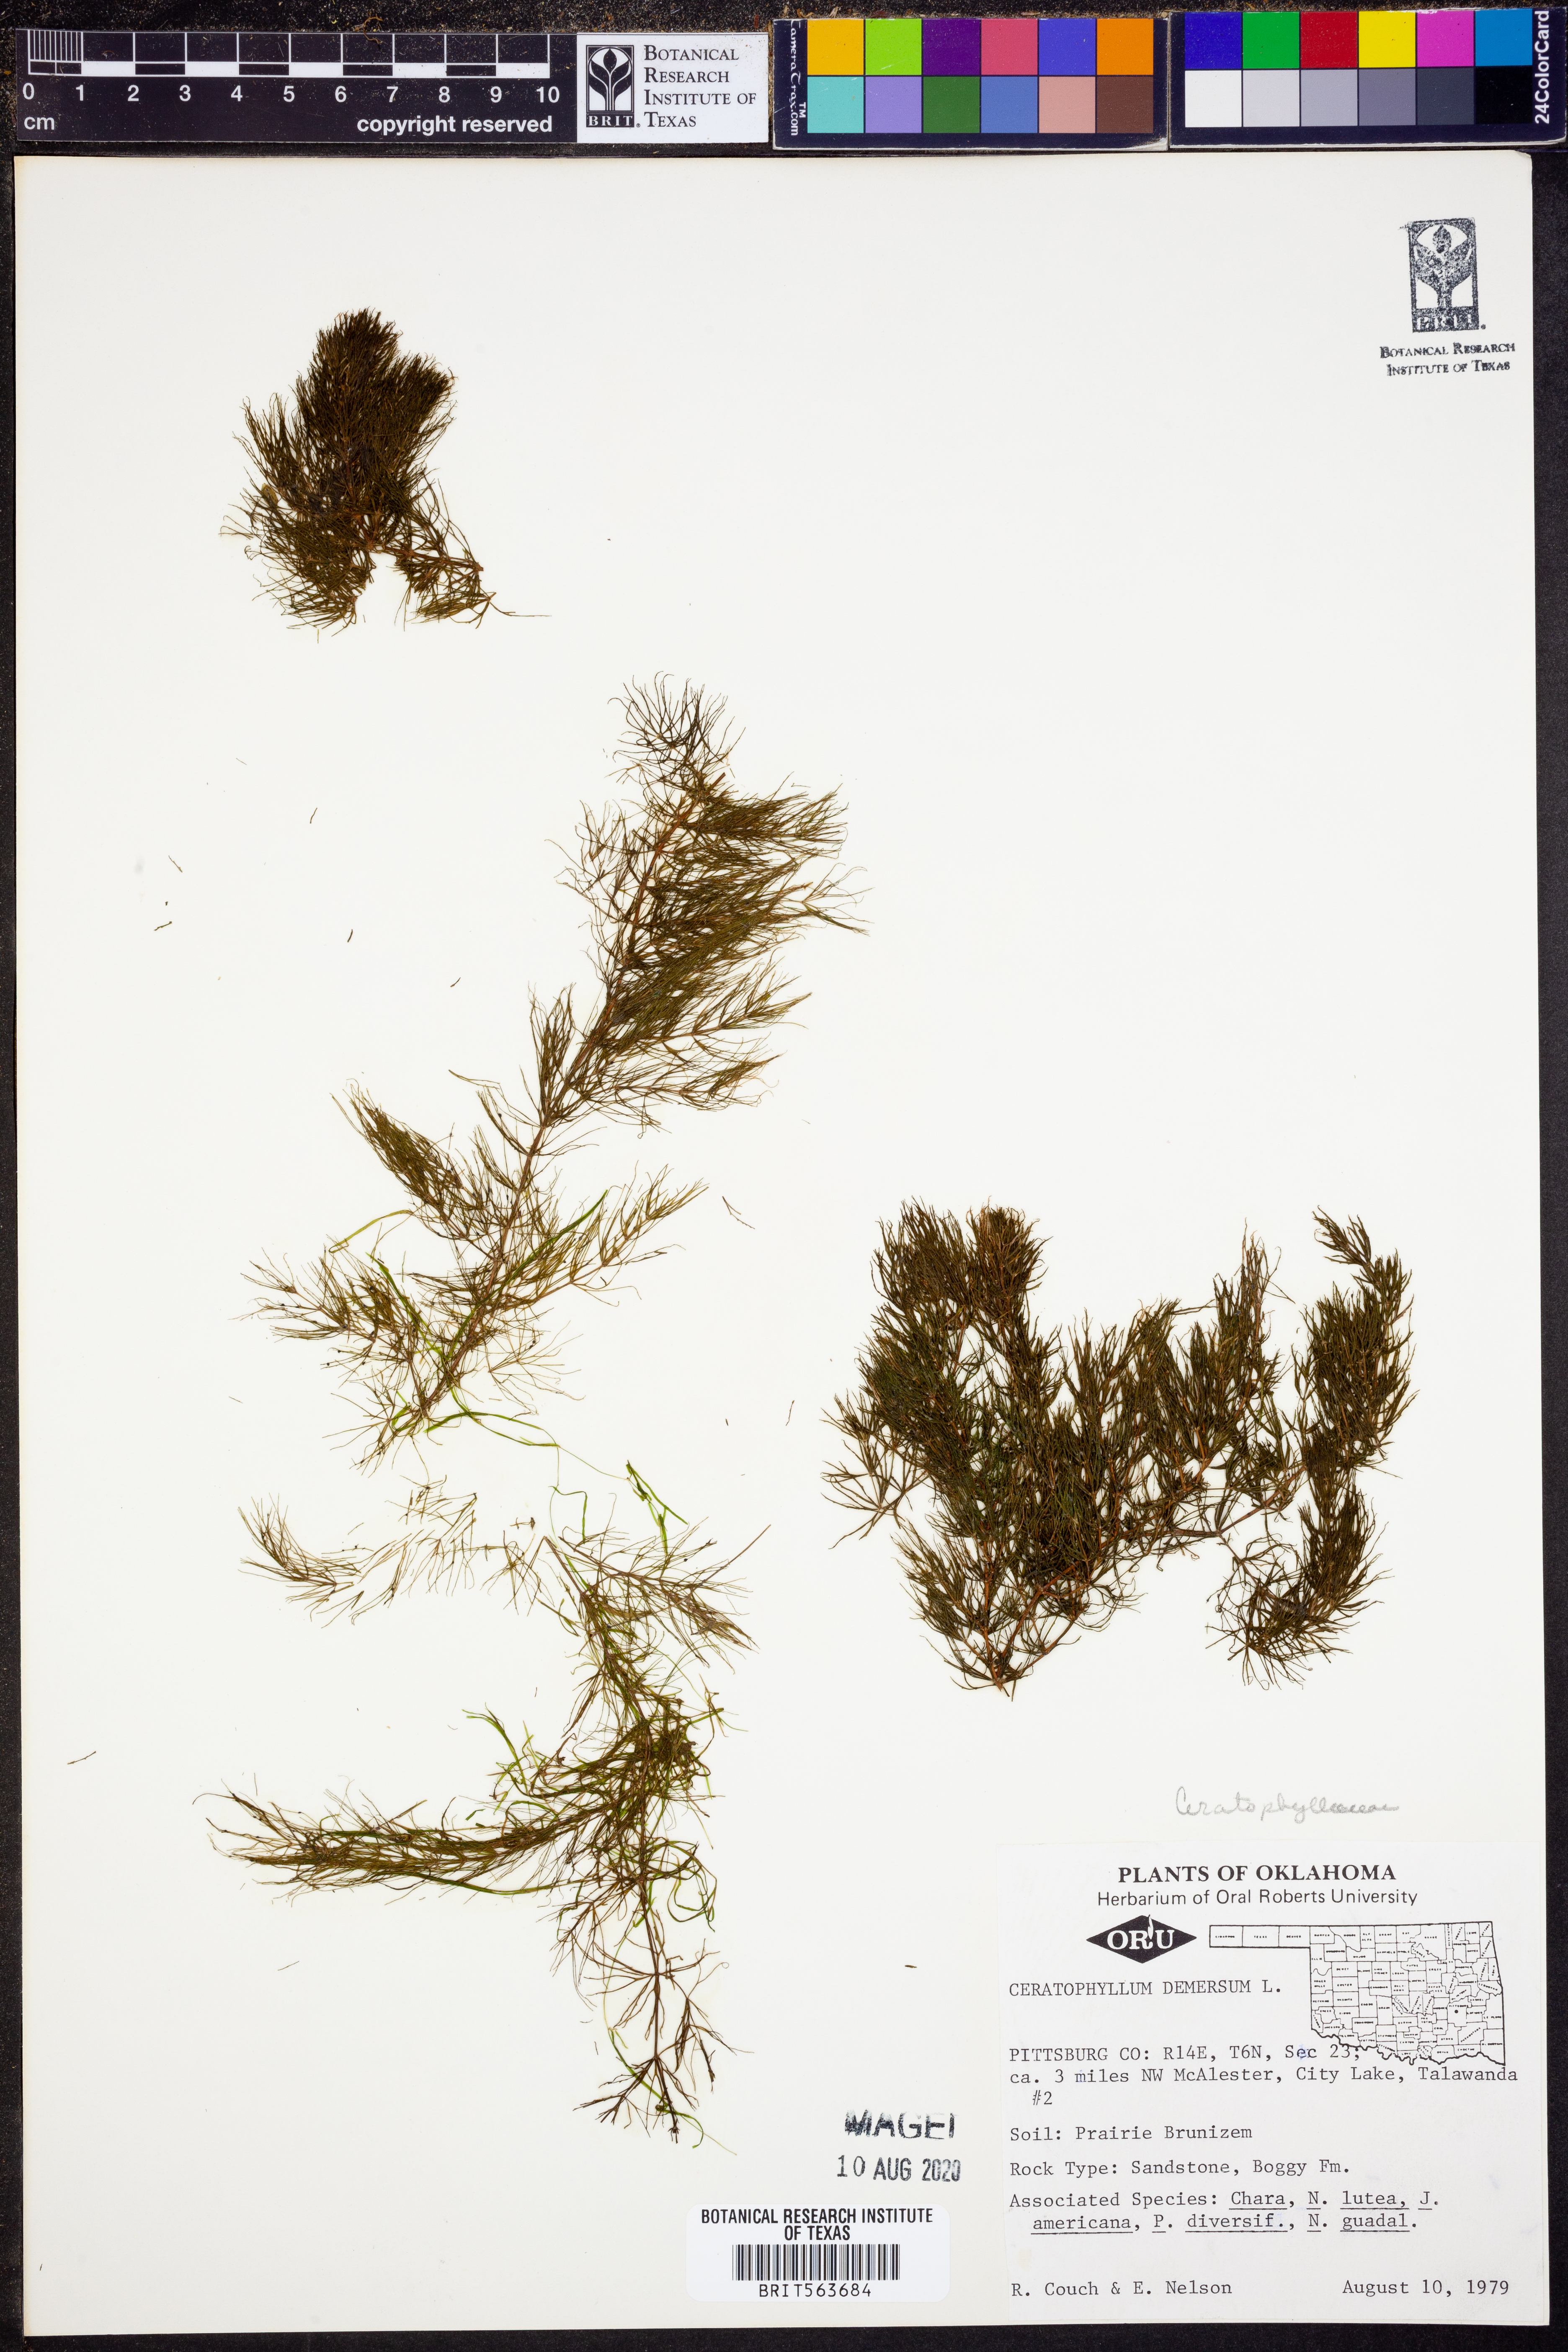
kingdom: Plantae
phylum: Tracheophyta
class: Magnoliopsida
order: Ceratophyllales
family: Ceratophyllaceae
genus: Ceratophyllum
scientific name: Ceratophyllum demersum
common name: Rigid hornwort
